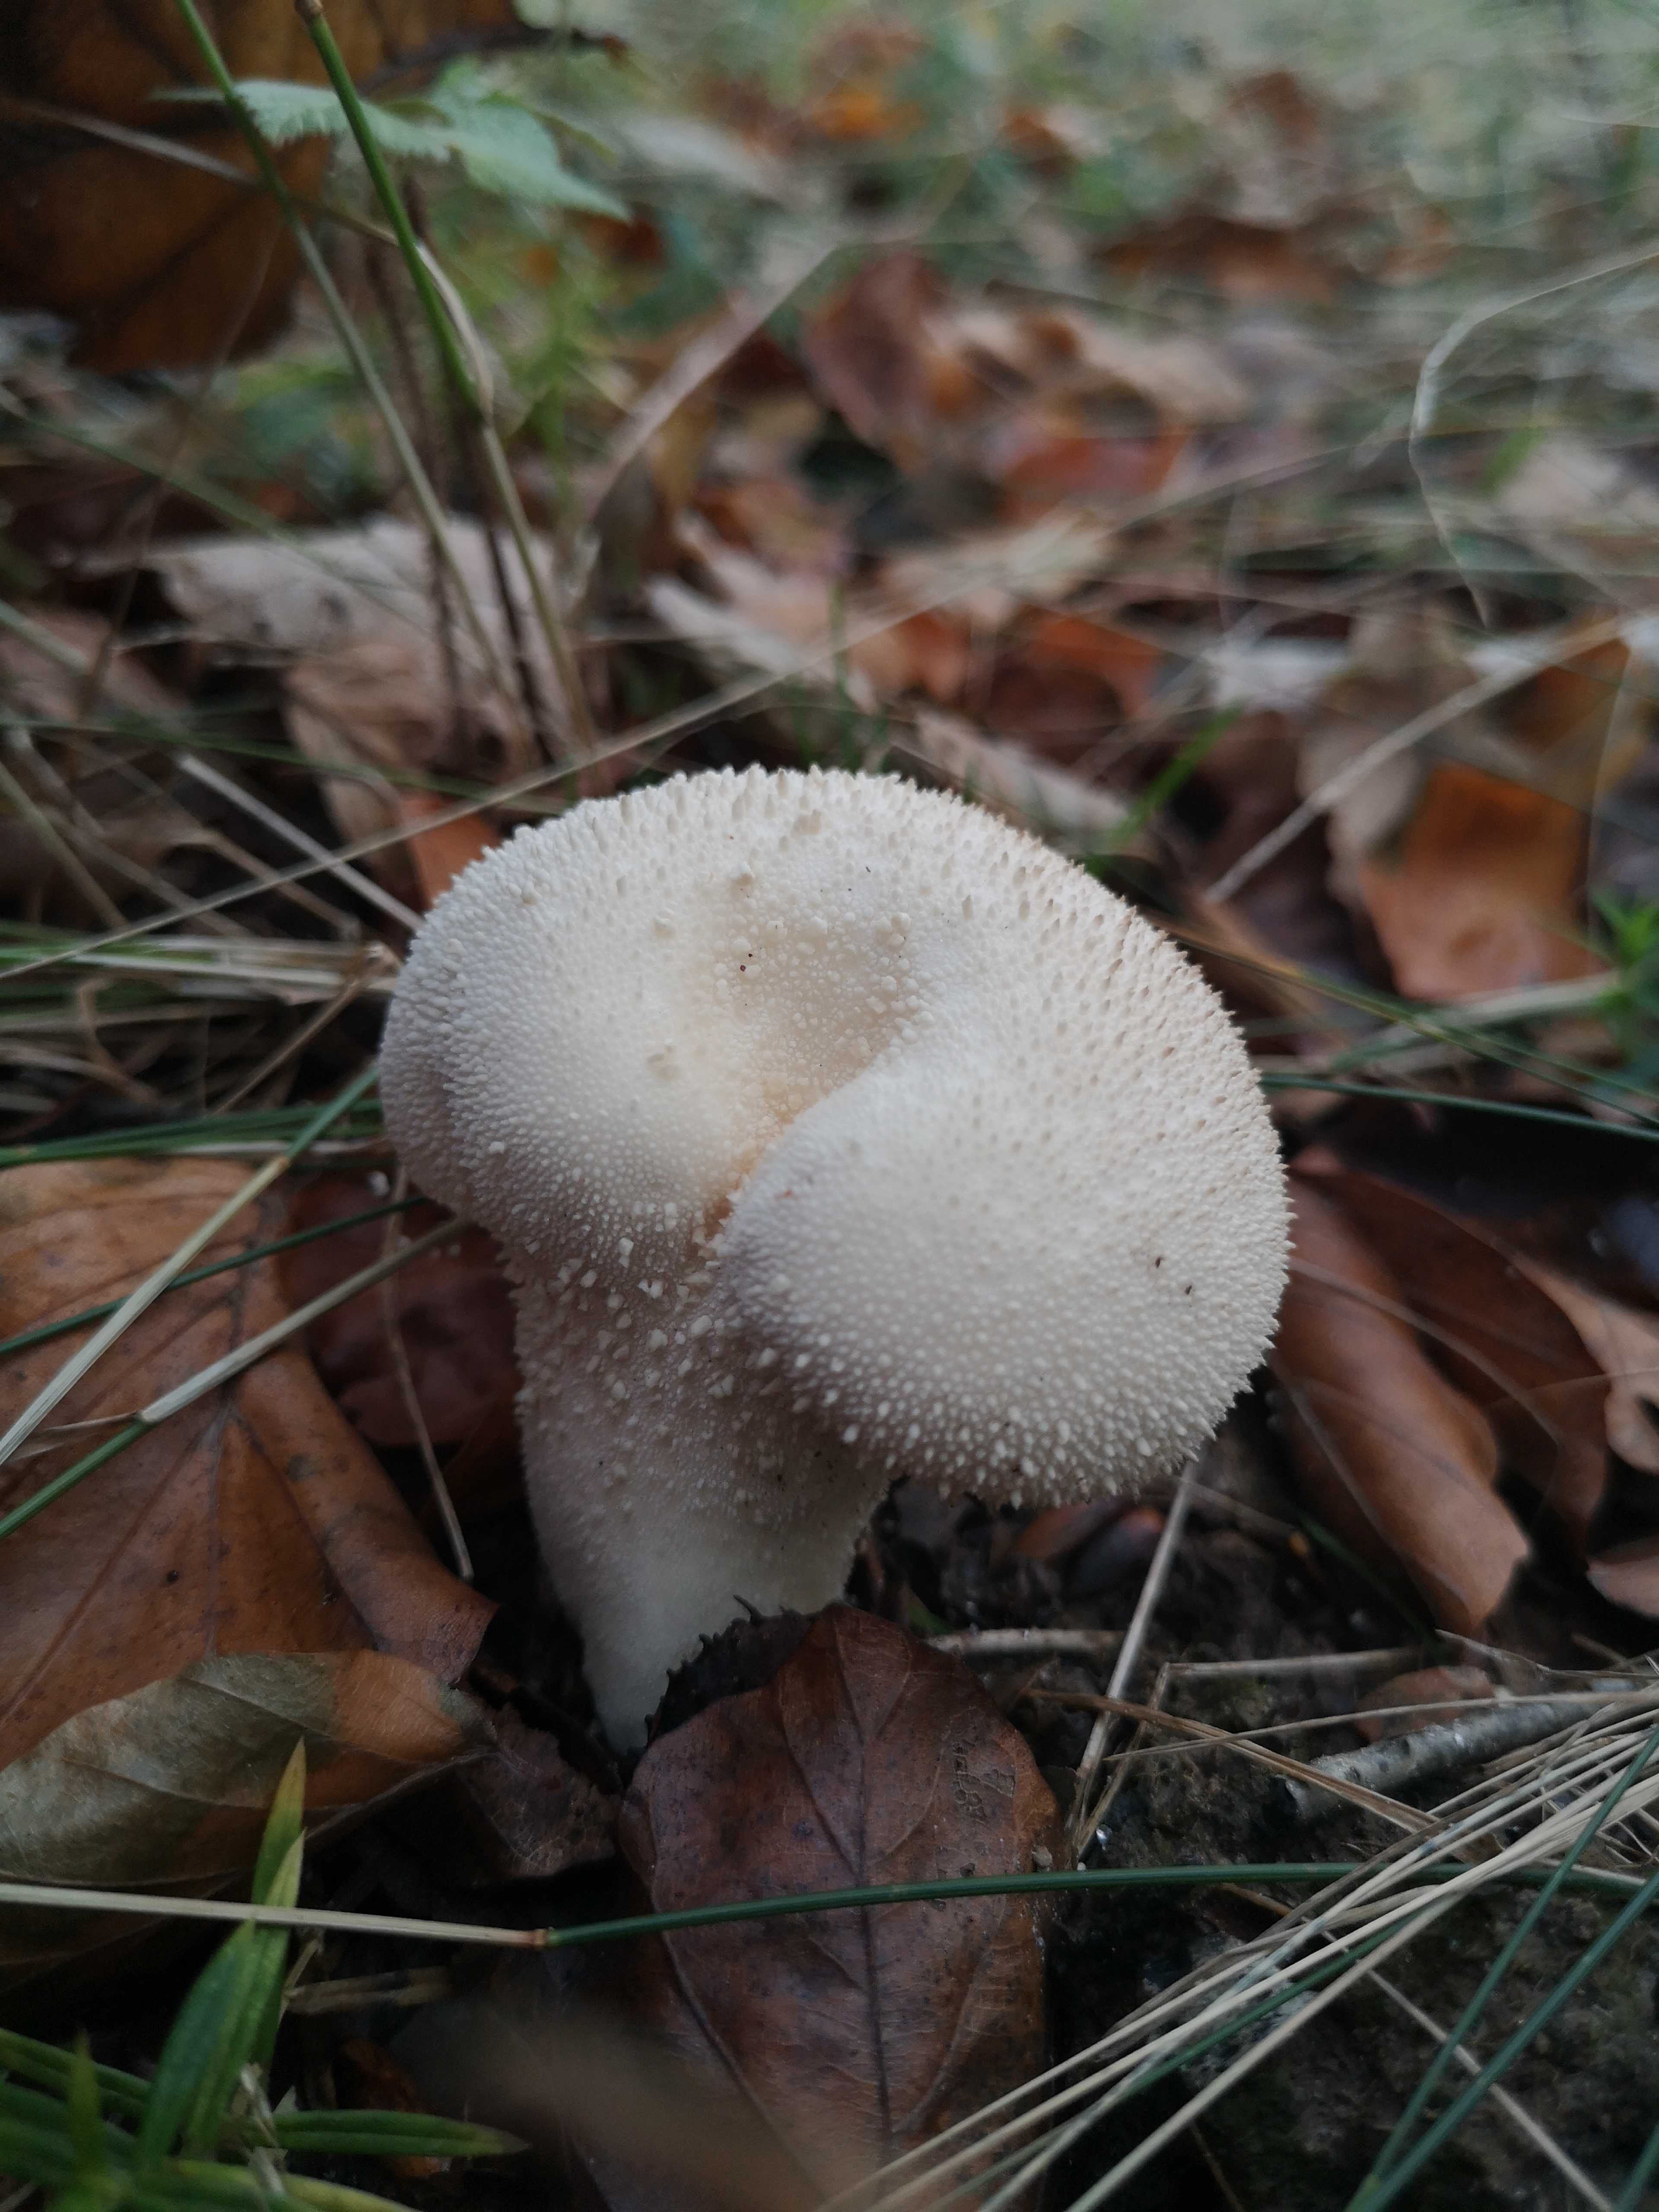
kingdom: Fungi
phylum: Basidiomycota
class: Agaricomycetes
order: Agaricales
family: Lycoperdaceae
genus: Lycoperdon
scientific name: Lycoperdon perlatum
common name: krystal-støvbold
